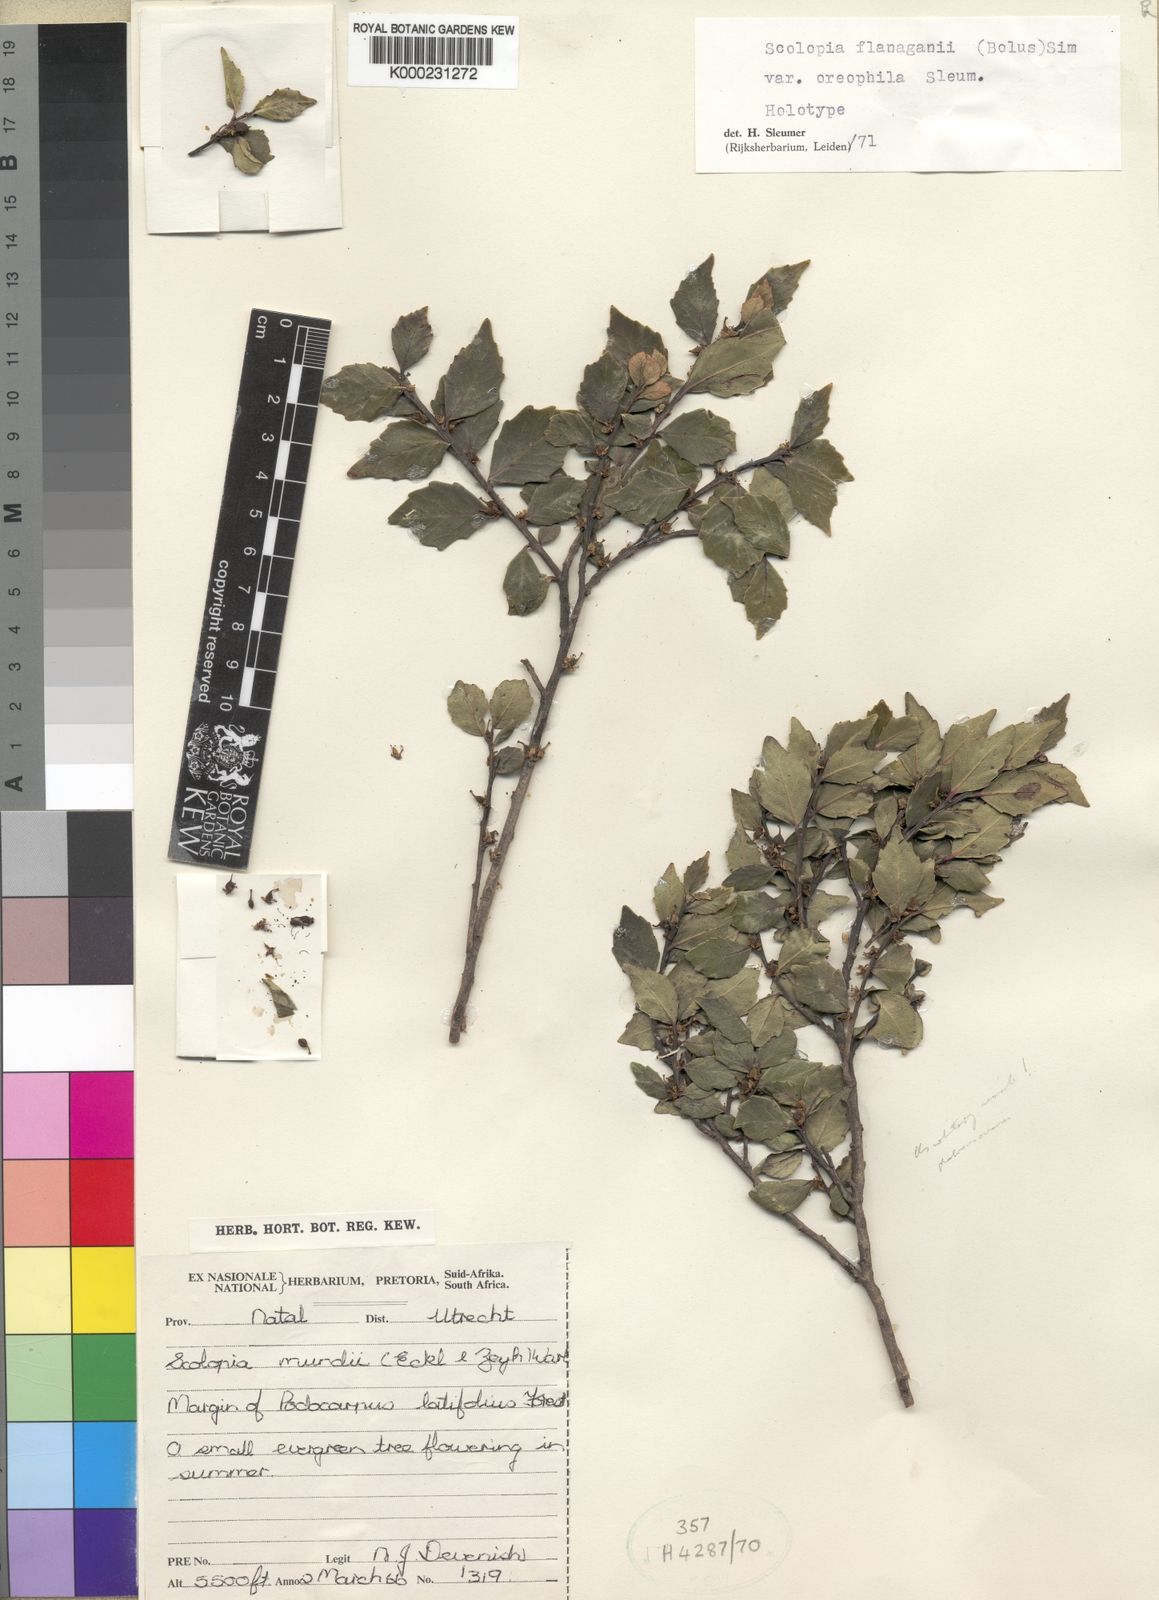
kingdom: Plantae
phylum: Tracheophyta
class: Magnoliopsida
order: Malpighiales
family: Salicaceae
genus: Scolopia
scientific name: Scolopia oreophila
